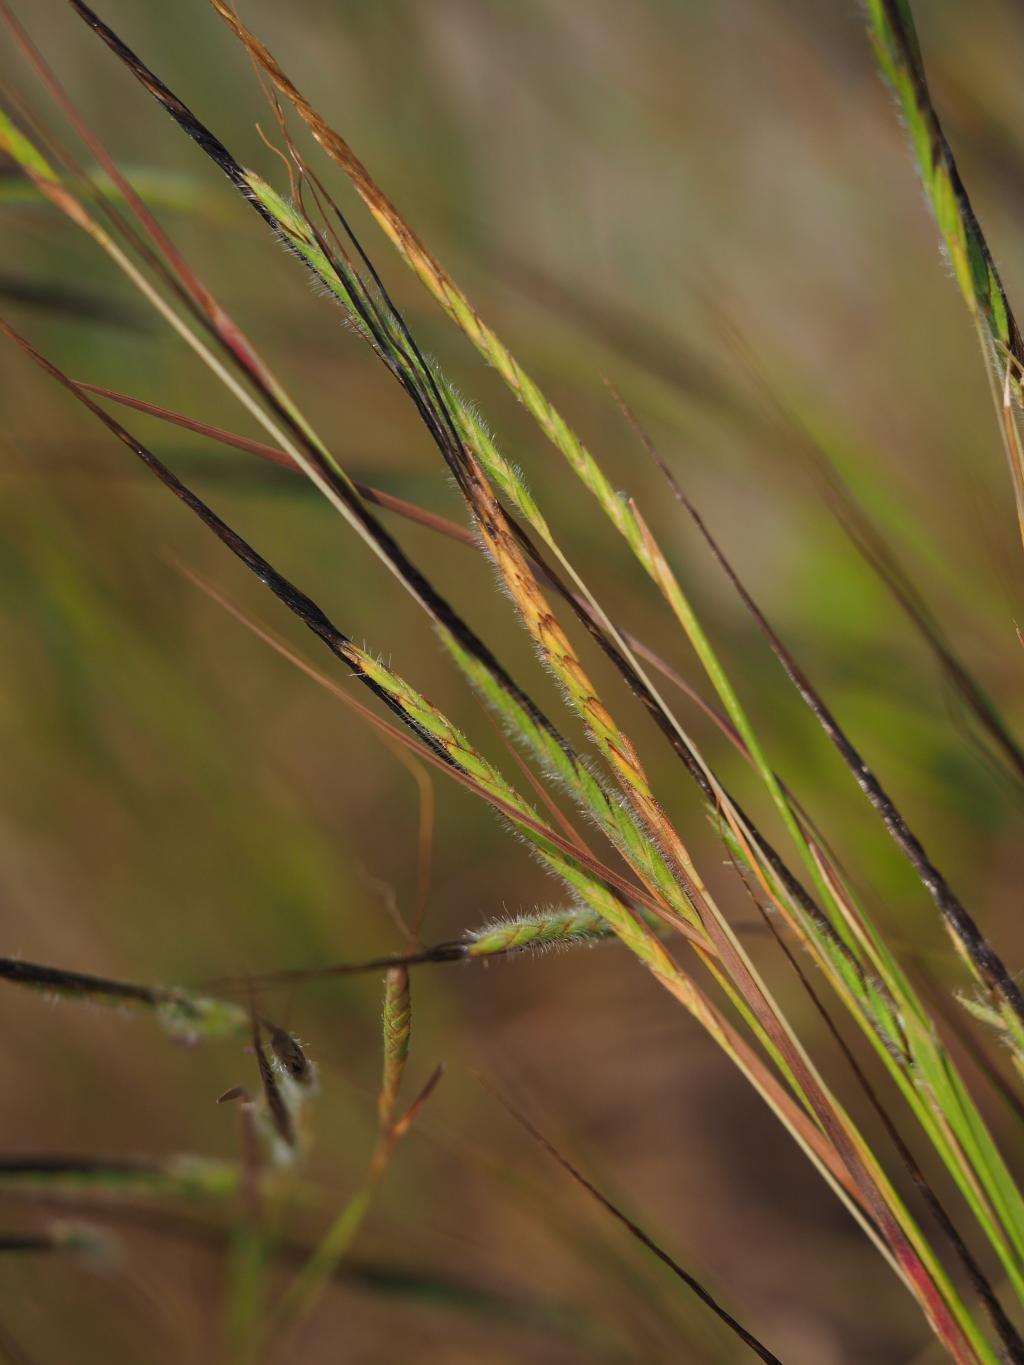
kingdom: Plantae
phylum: Tracheophyta
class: Liliopsida
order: Poales
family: Poaceae
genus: Heteropogon
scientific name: Heteropogon contortus
